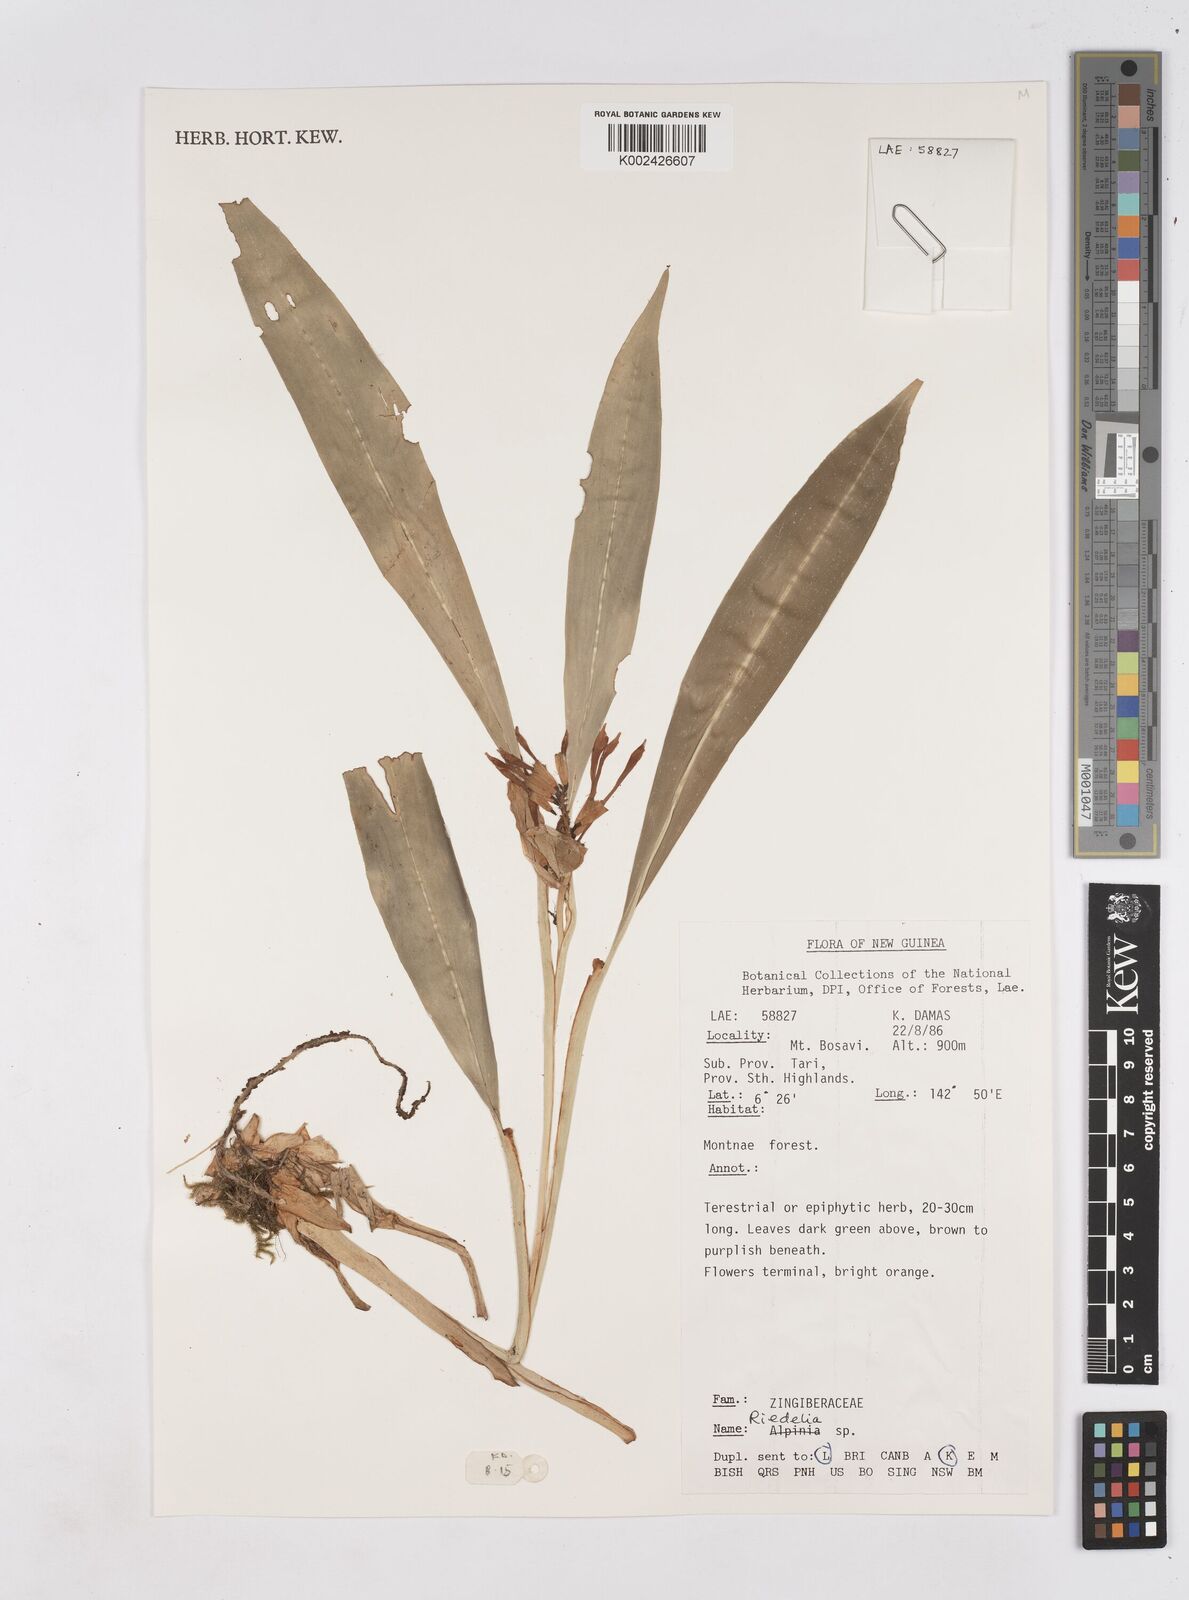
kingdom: Plantae
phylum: Tracheophyta
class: Liliopsida
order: Zingiberales
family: Zingiberaceae
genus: Riedelia
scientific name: Riedelia
